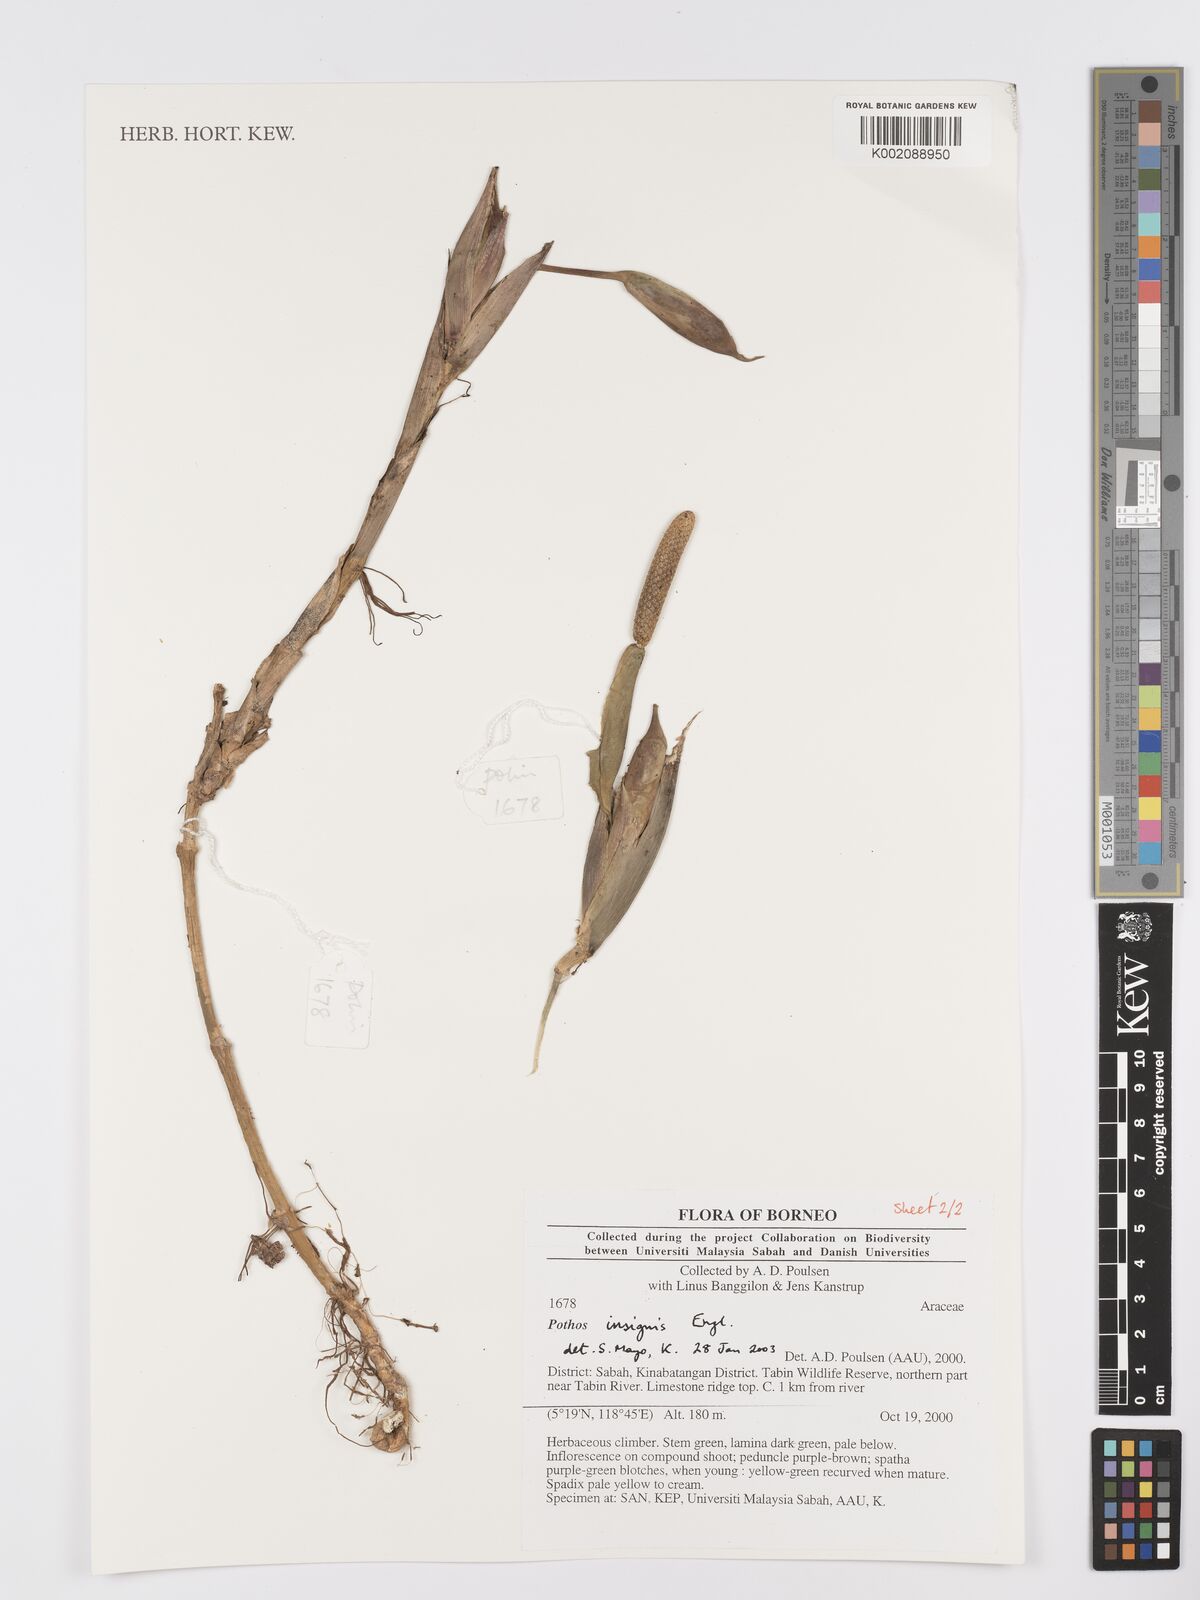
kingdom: Plantae
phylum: Tracheophyta
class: Liliopsida
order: Alismatales
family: Araceae
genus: Pothos
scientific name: Pothos insignis
